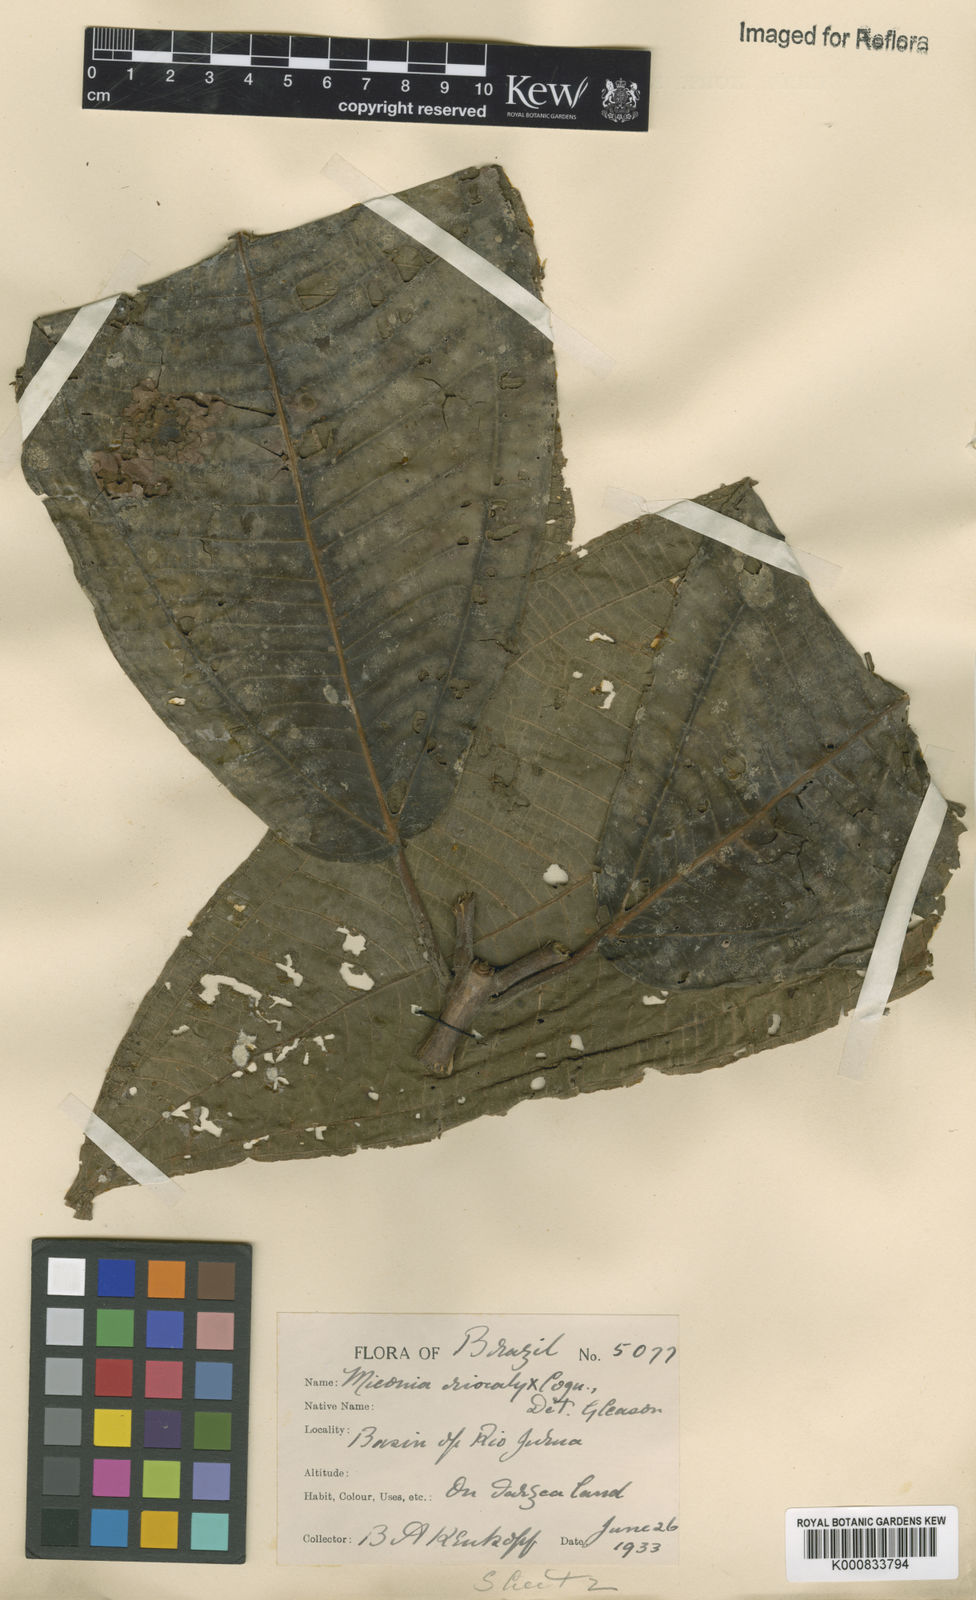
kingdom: Plantae
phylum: Tracheophyta
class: Magnoliopsida
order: Myrtales
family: Melastomataceae
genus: Miconia
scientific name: Miconia eriocalyx
